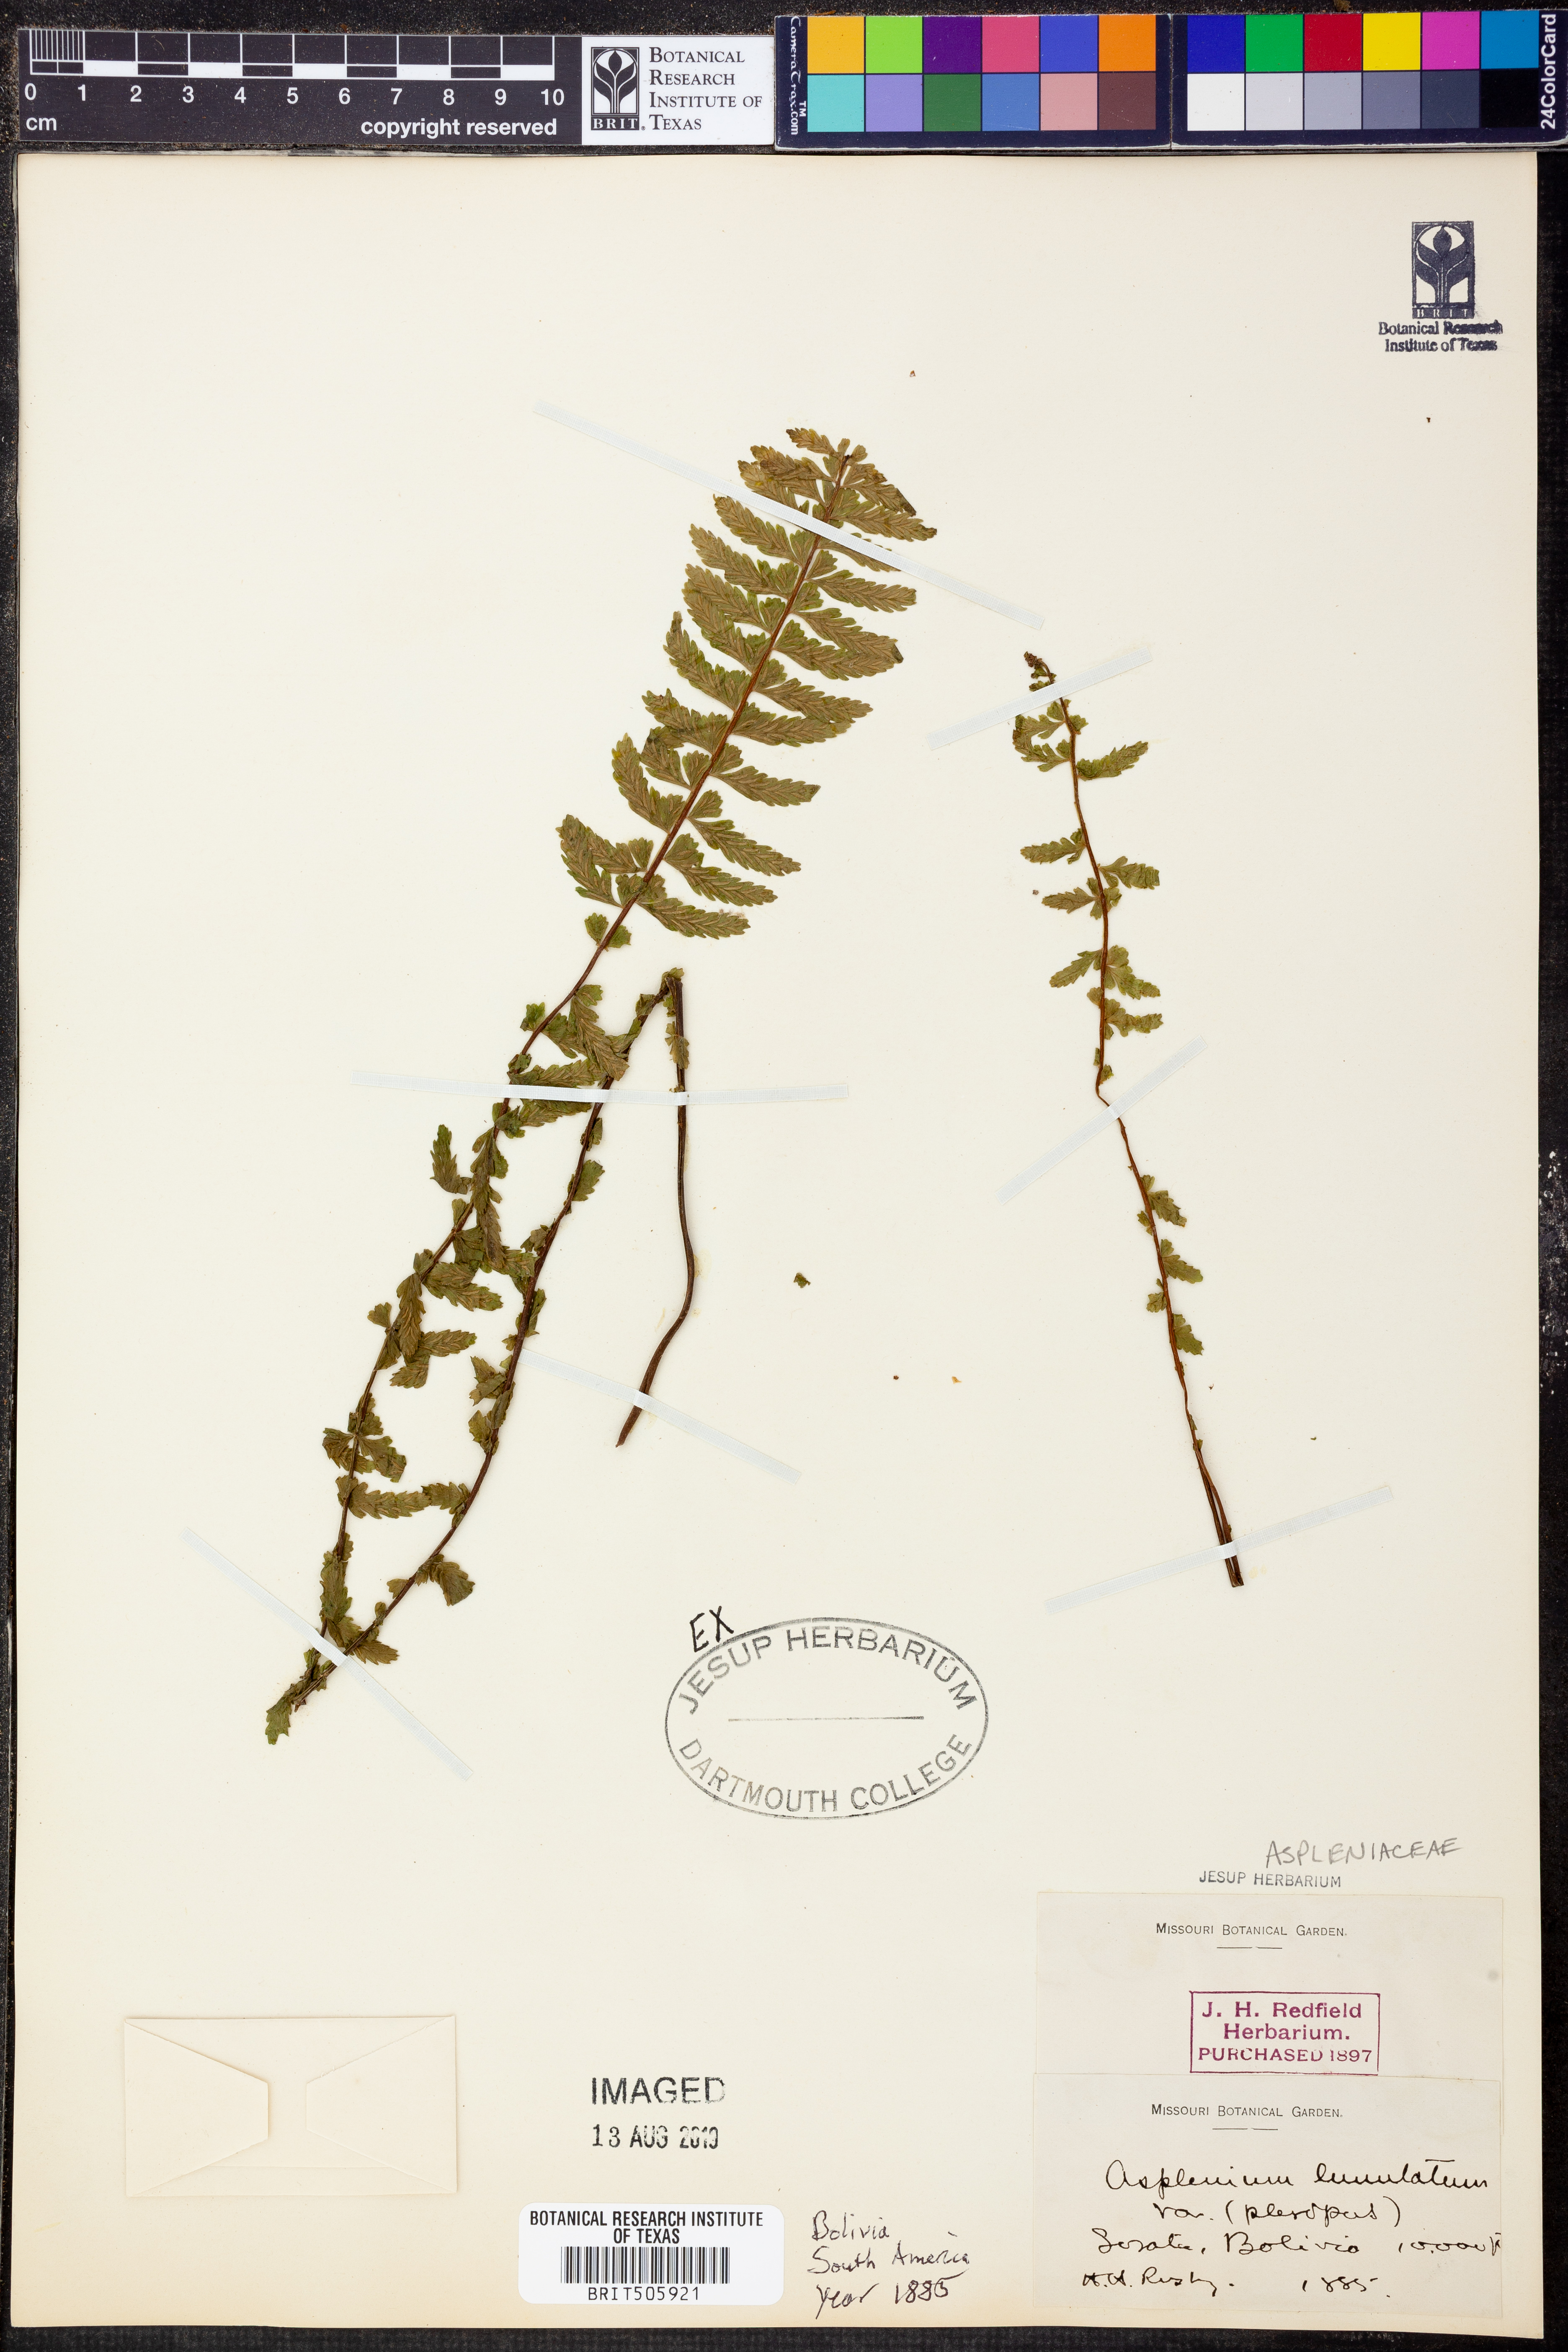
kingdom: Plantae
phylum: Tracheophyta
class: Polypodiopsida
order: Polypodiales
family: Aspleniaceae
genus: Asplenium
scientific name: Asplenium lunulatum
